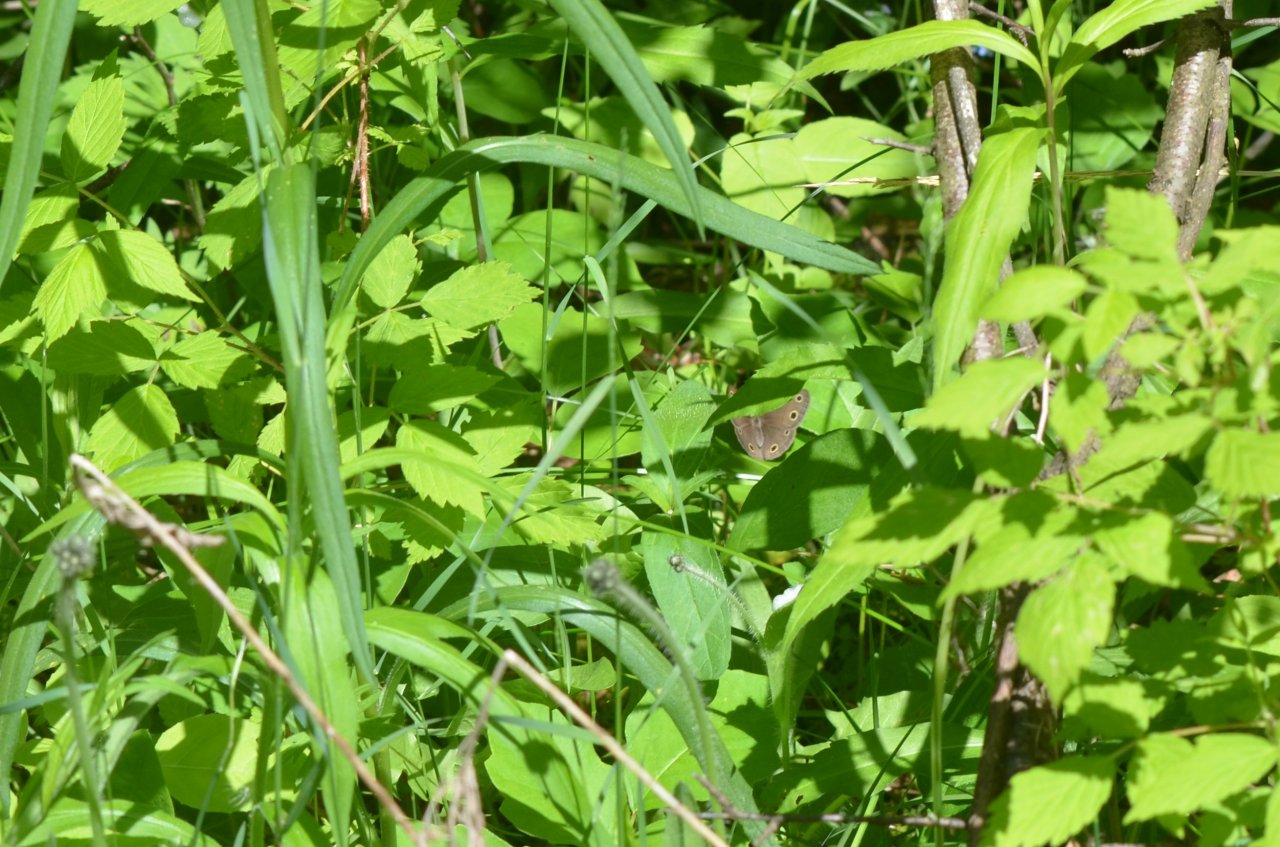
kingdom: Animalia
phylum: Arthropoda
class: Insecta
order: Lepidoptera
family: Nymphalidae
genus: Euptychia
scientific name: Euptychia cymela
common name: Little Wood Satyr
